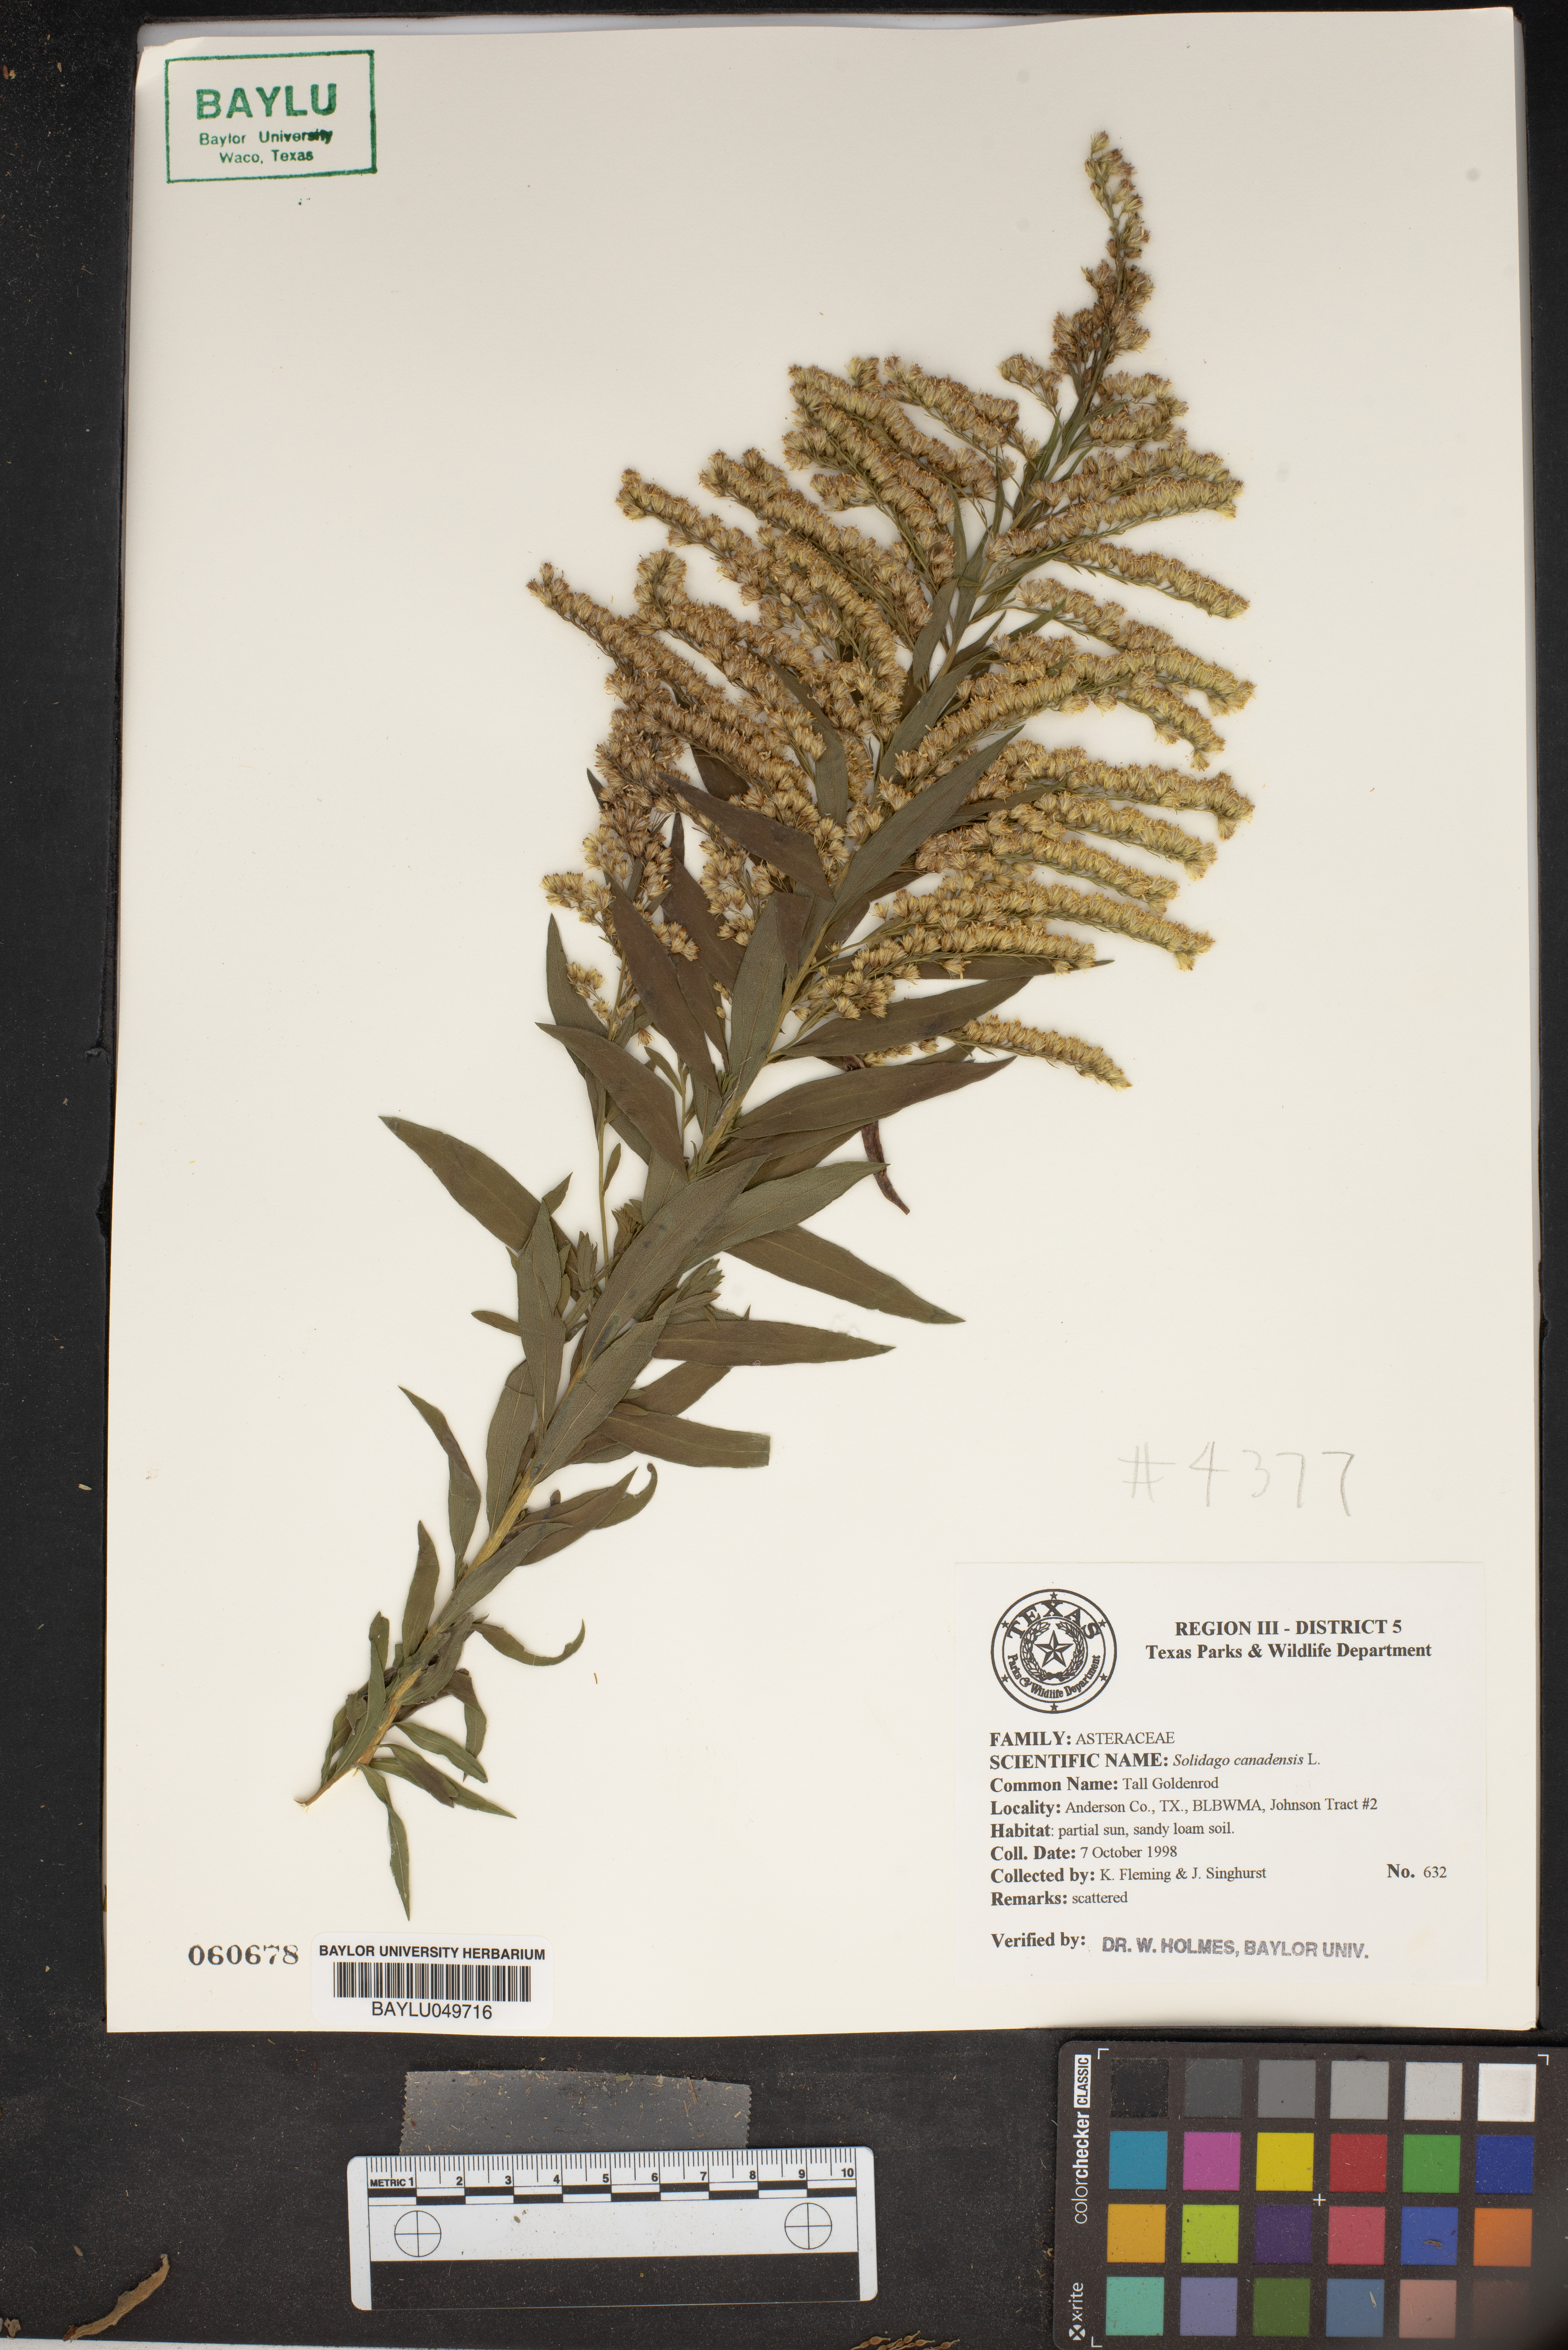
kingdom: Plantae
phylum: Tracheophyta
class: Magnoliopsida
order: Asterales
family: Asteraceae
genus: Solidago
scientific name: Solidago canadensis
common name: Canada goldenrod
